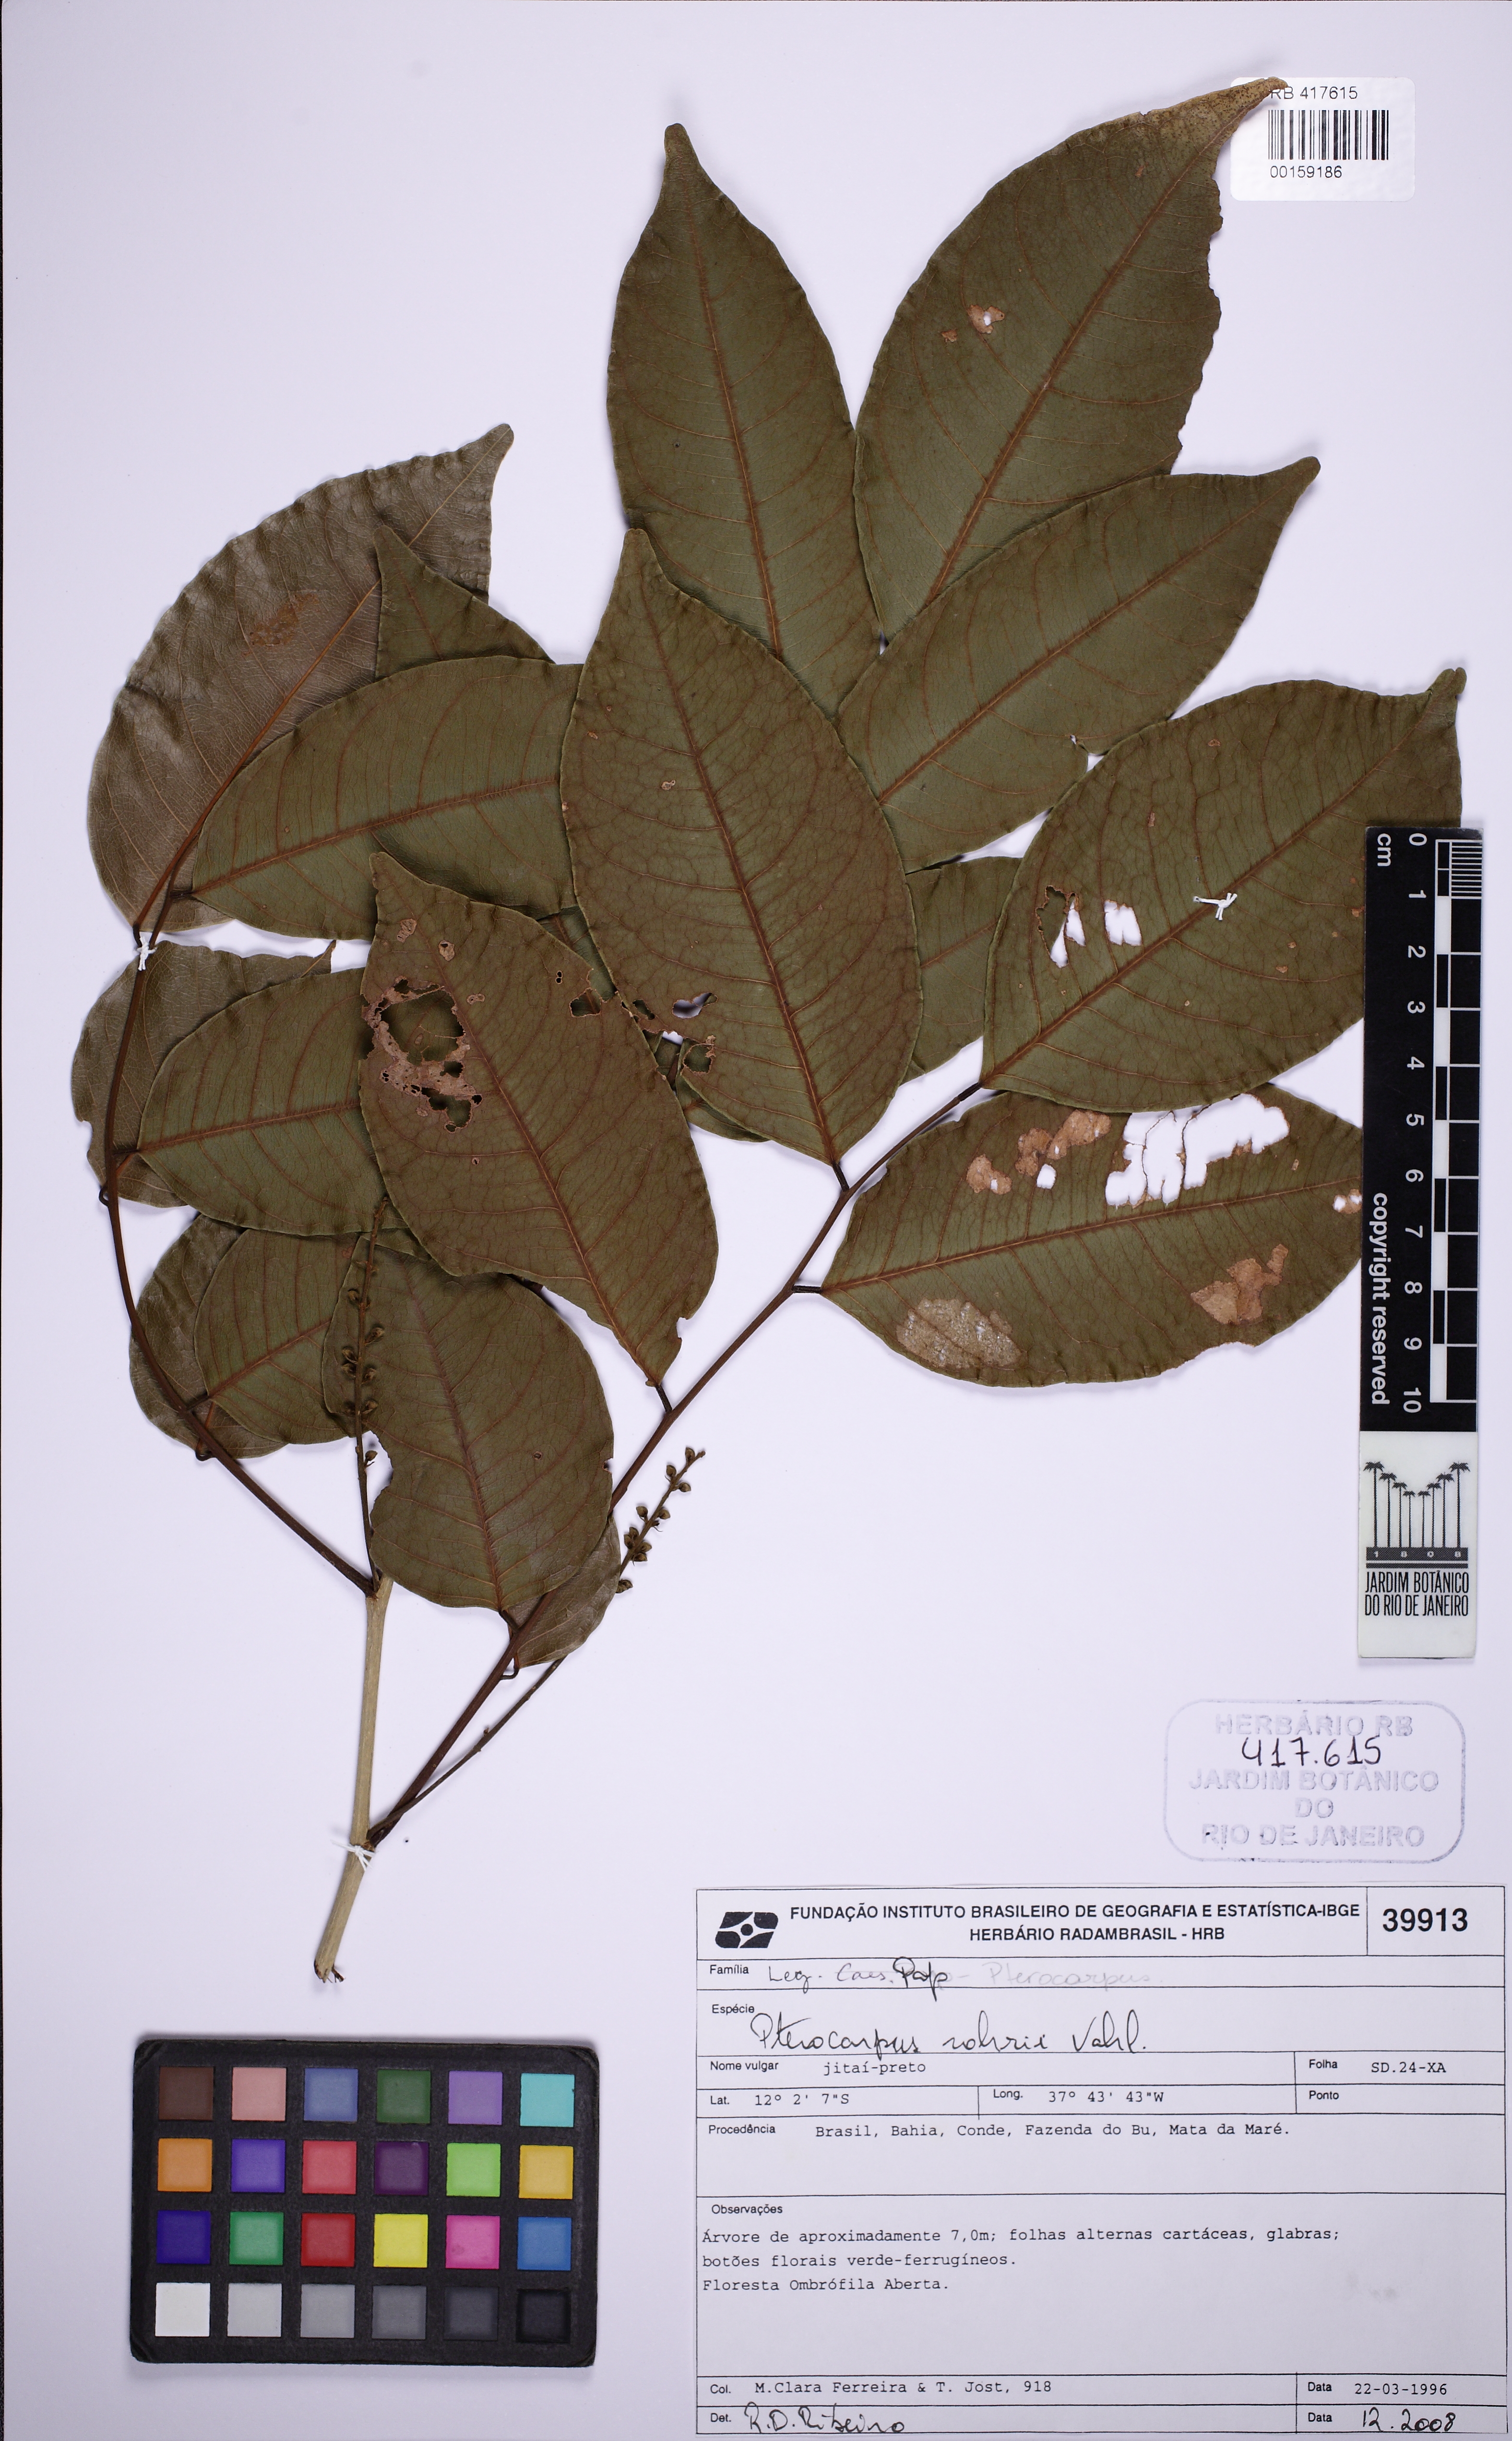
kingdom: Plantae
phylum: Tracheophyta
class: Magnoliopsida
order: Fabales
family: Fabaceae
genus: Pterocarpus
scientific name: Pterocarpus rohrii
